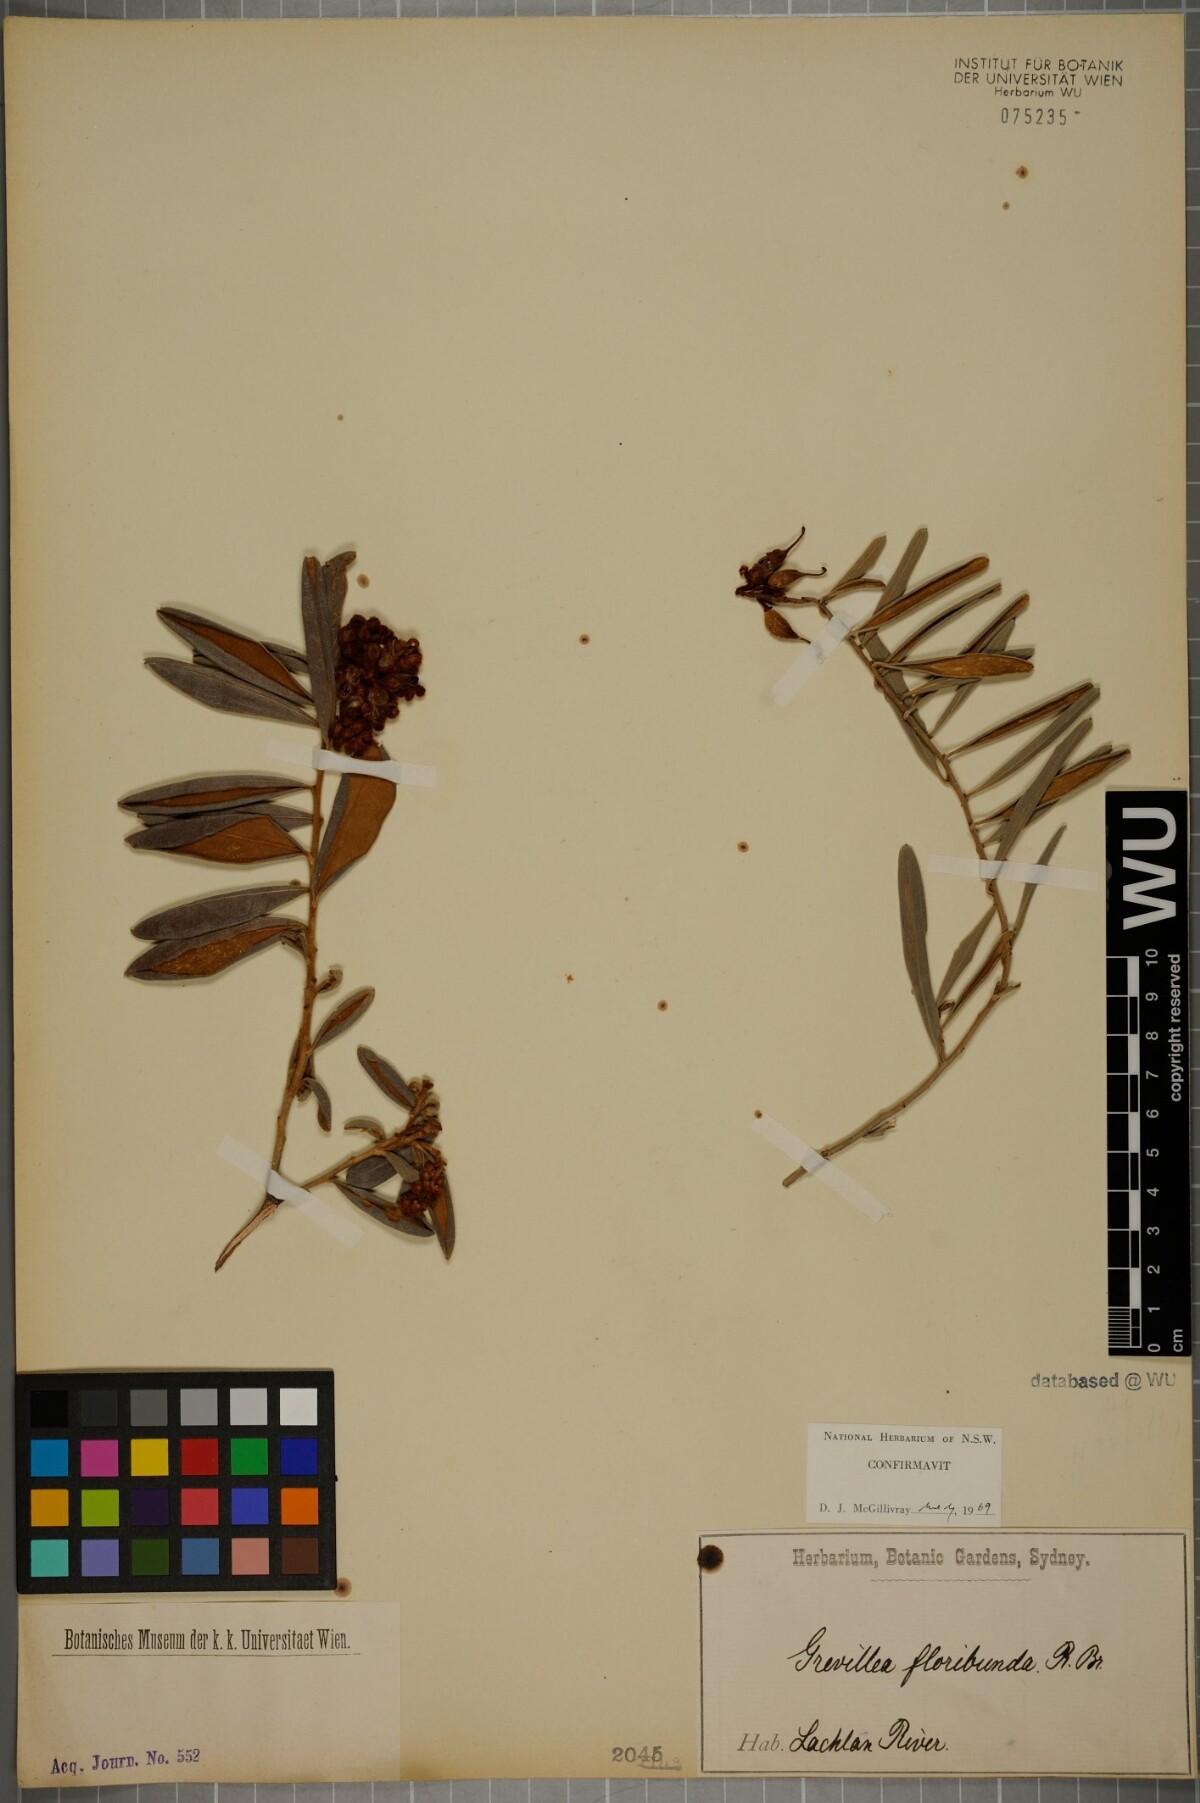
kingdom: Plantae
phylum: Tracheophyta
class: Magnoliopsida
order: Proteales
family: Proteaceae
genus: Grevillea
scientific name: Grevillea floribunda
